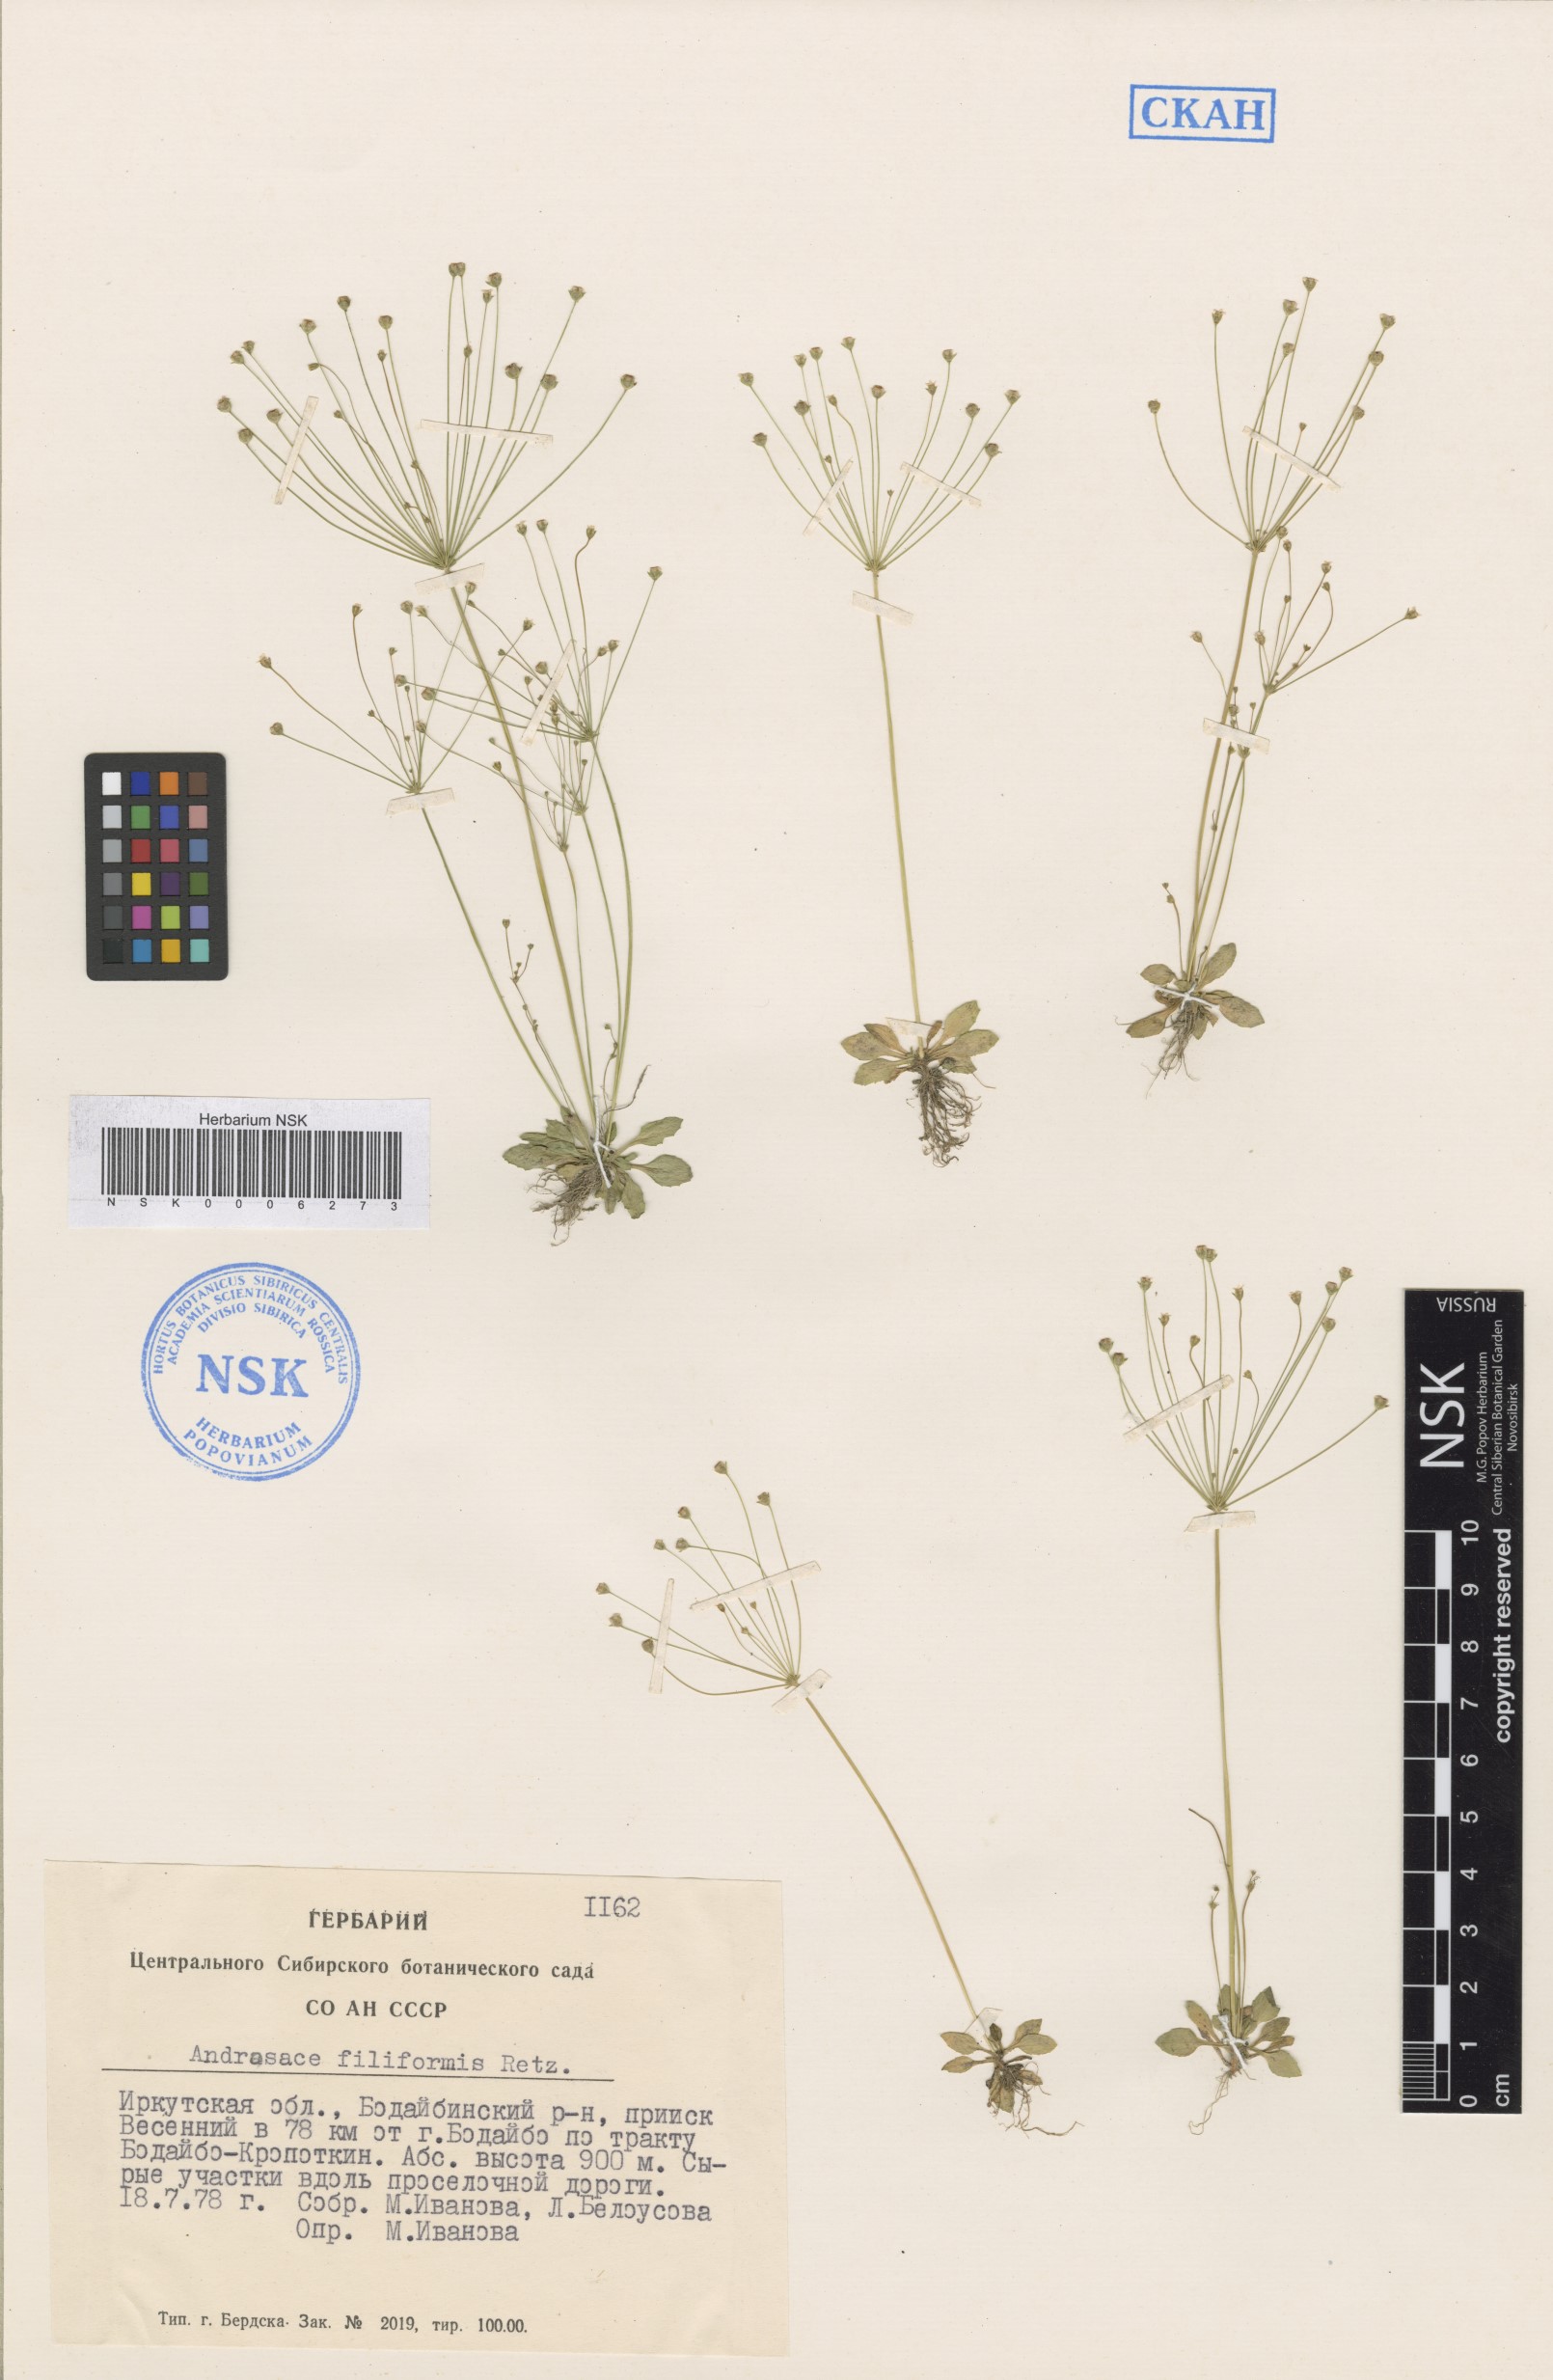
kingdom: Plantae
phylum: Tracheophyta
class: Magnoliopsida
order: Ericales
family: Primulaceae
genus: Androsace
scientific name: Androsace filiformis
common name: Filiform rock jasmine
